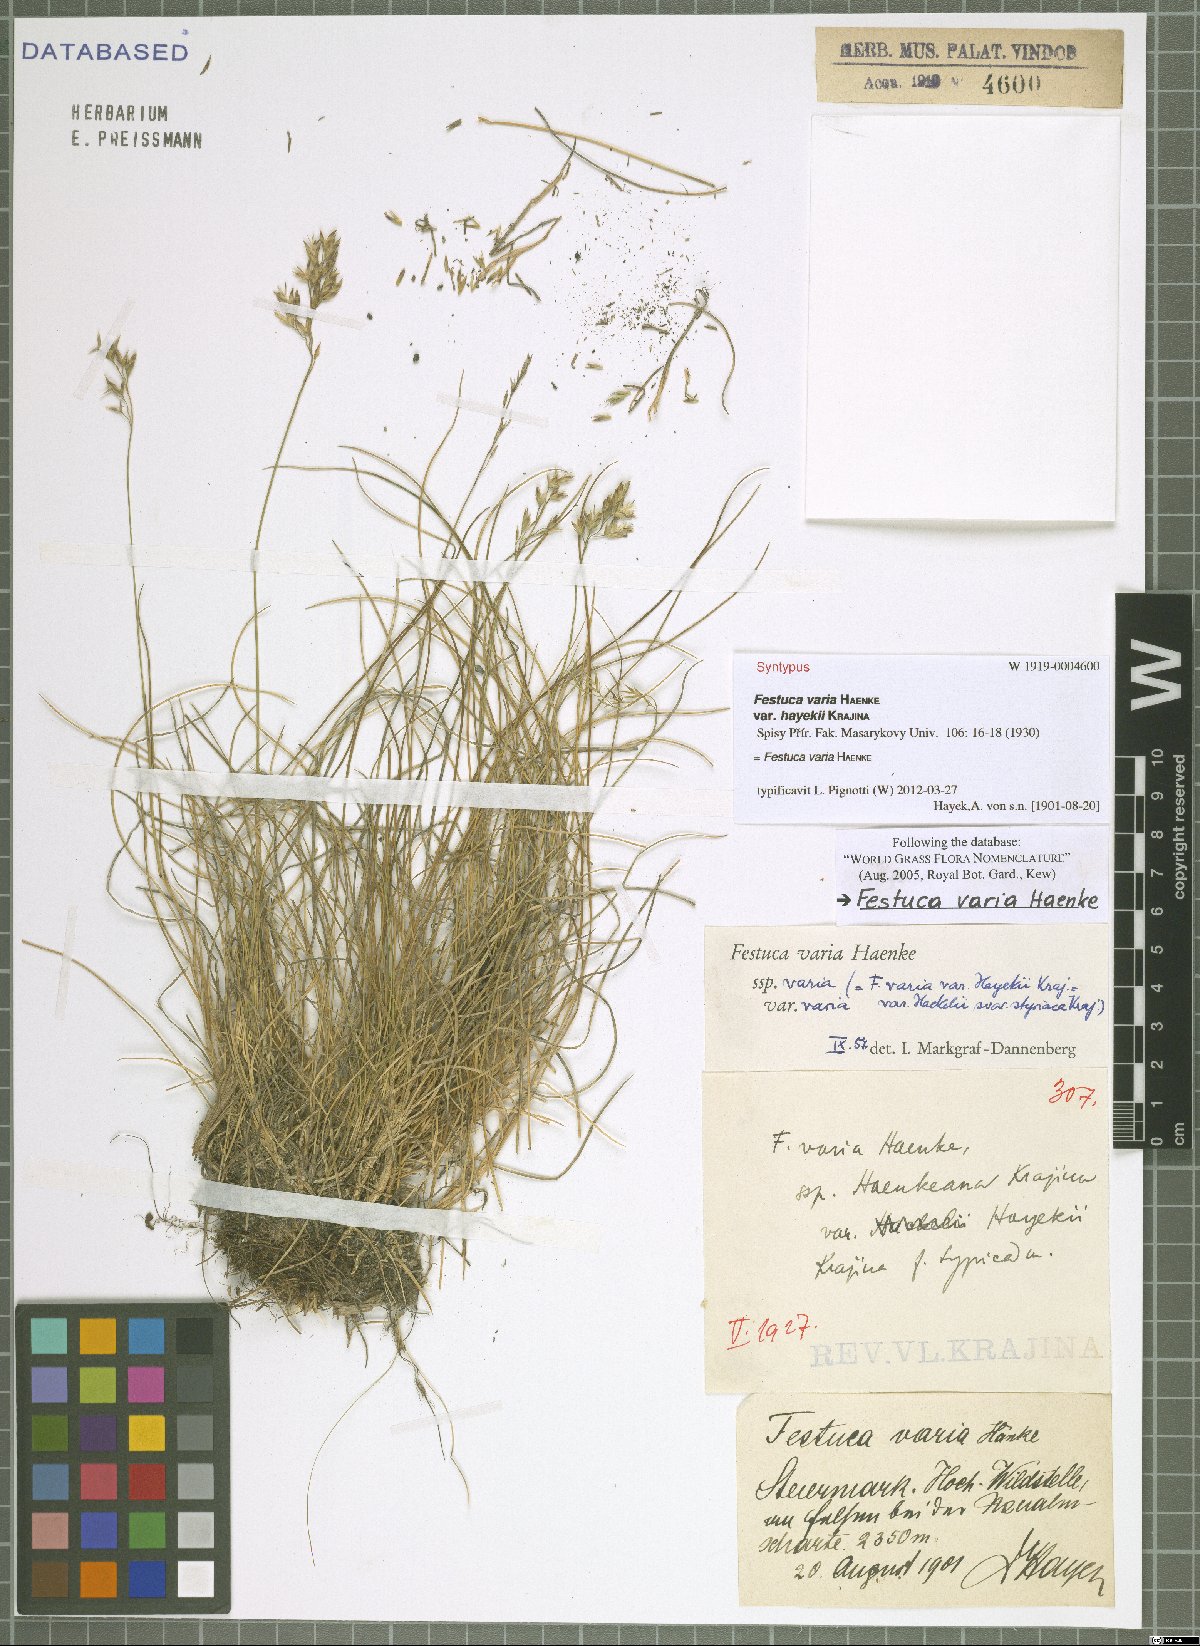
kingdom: Plantae
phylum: Tracheophyta
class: Liliopsida
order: Poales
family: Poaceae
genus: Festuca
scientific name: Festuca varia
